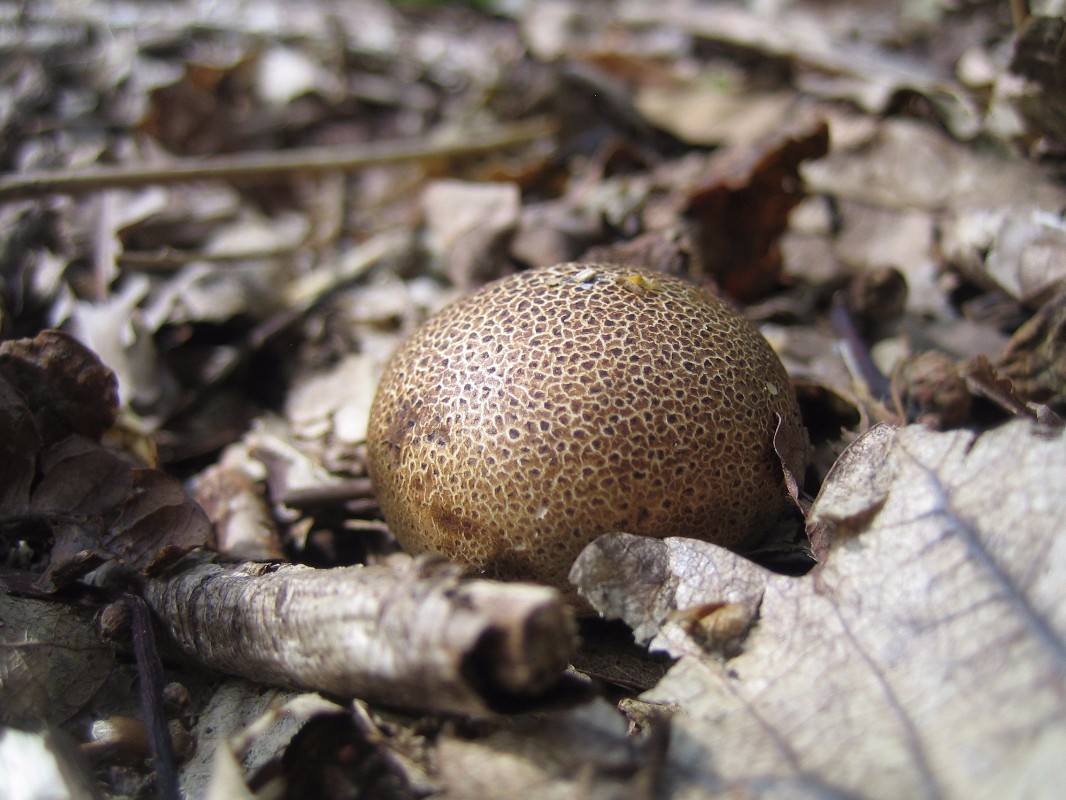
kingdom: Fungi
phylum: Basidiomycota
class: Agaricomycetes
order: Boletales
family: Sclerodermataceae
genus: Scleroderma
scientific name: Scleroderma areolatum
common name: plettet bruskbold
